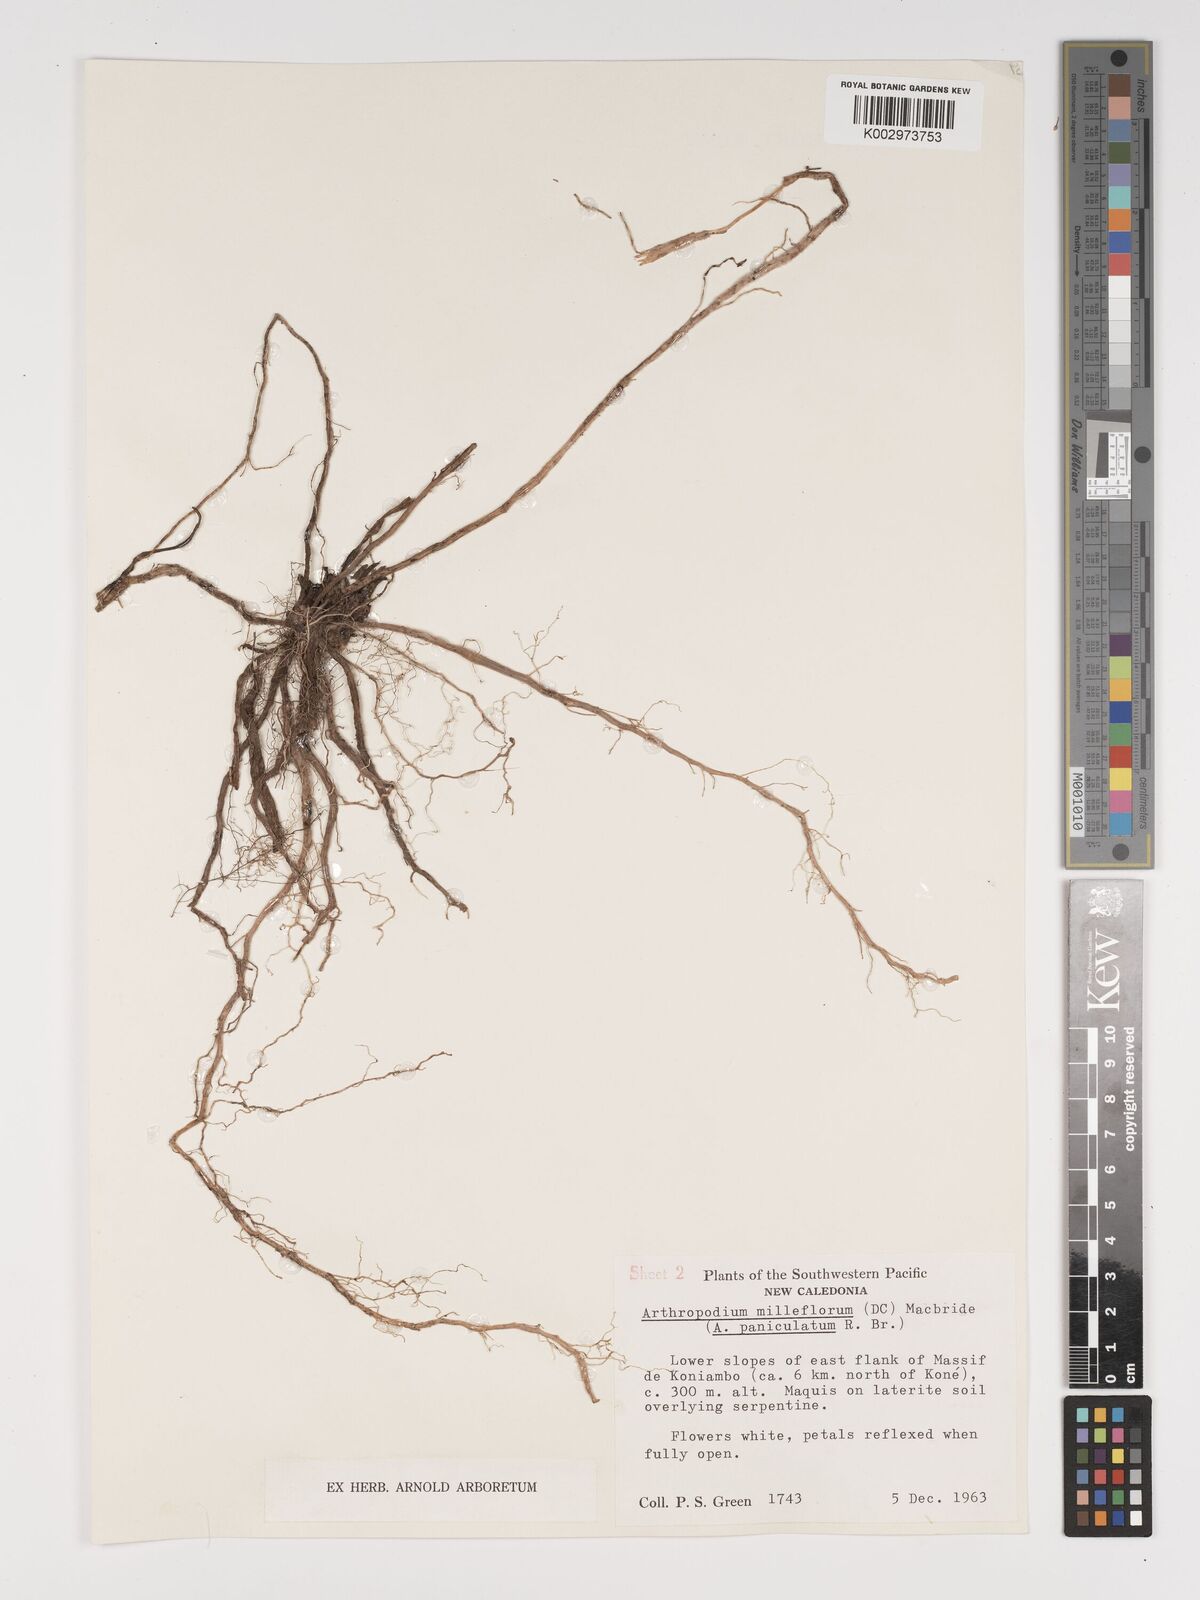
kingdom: Plantae
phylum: Tracheophyta
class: Liliopsida
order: Asparagales
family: Asparagaceae
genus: Arthropodium
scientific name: Arthropodium milleflorum
